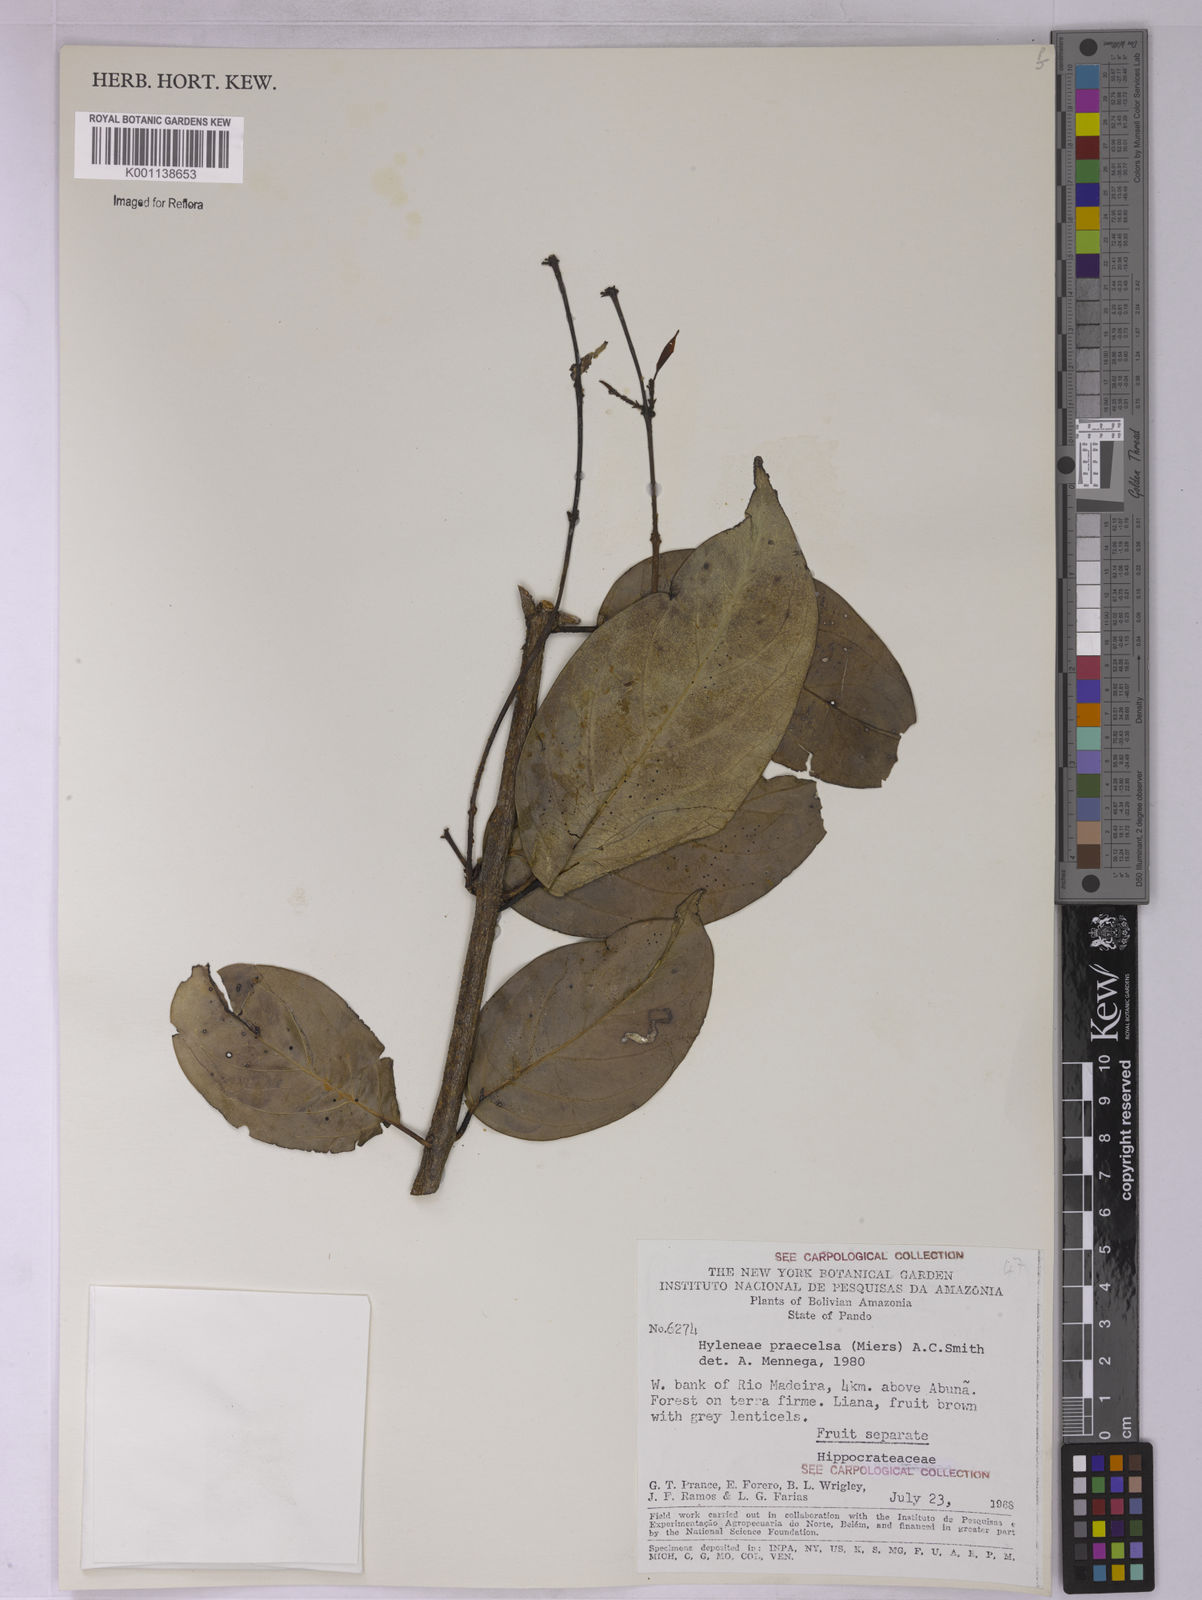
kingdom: Plantae
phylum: Tracheophyta
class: Magnoliopsida
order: Celastrales
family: Celastraceae
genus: Hylenaea
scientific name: Hylenaea praecelsa
